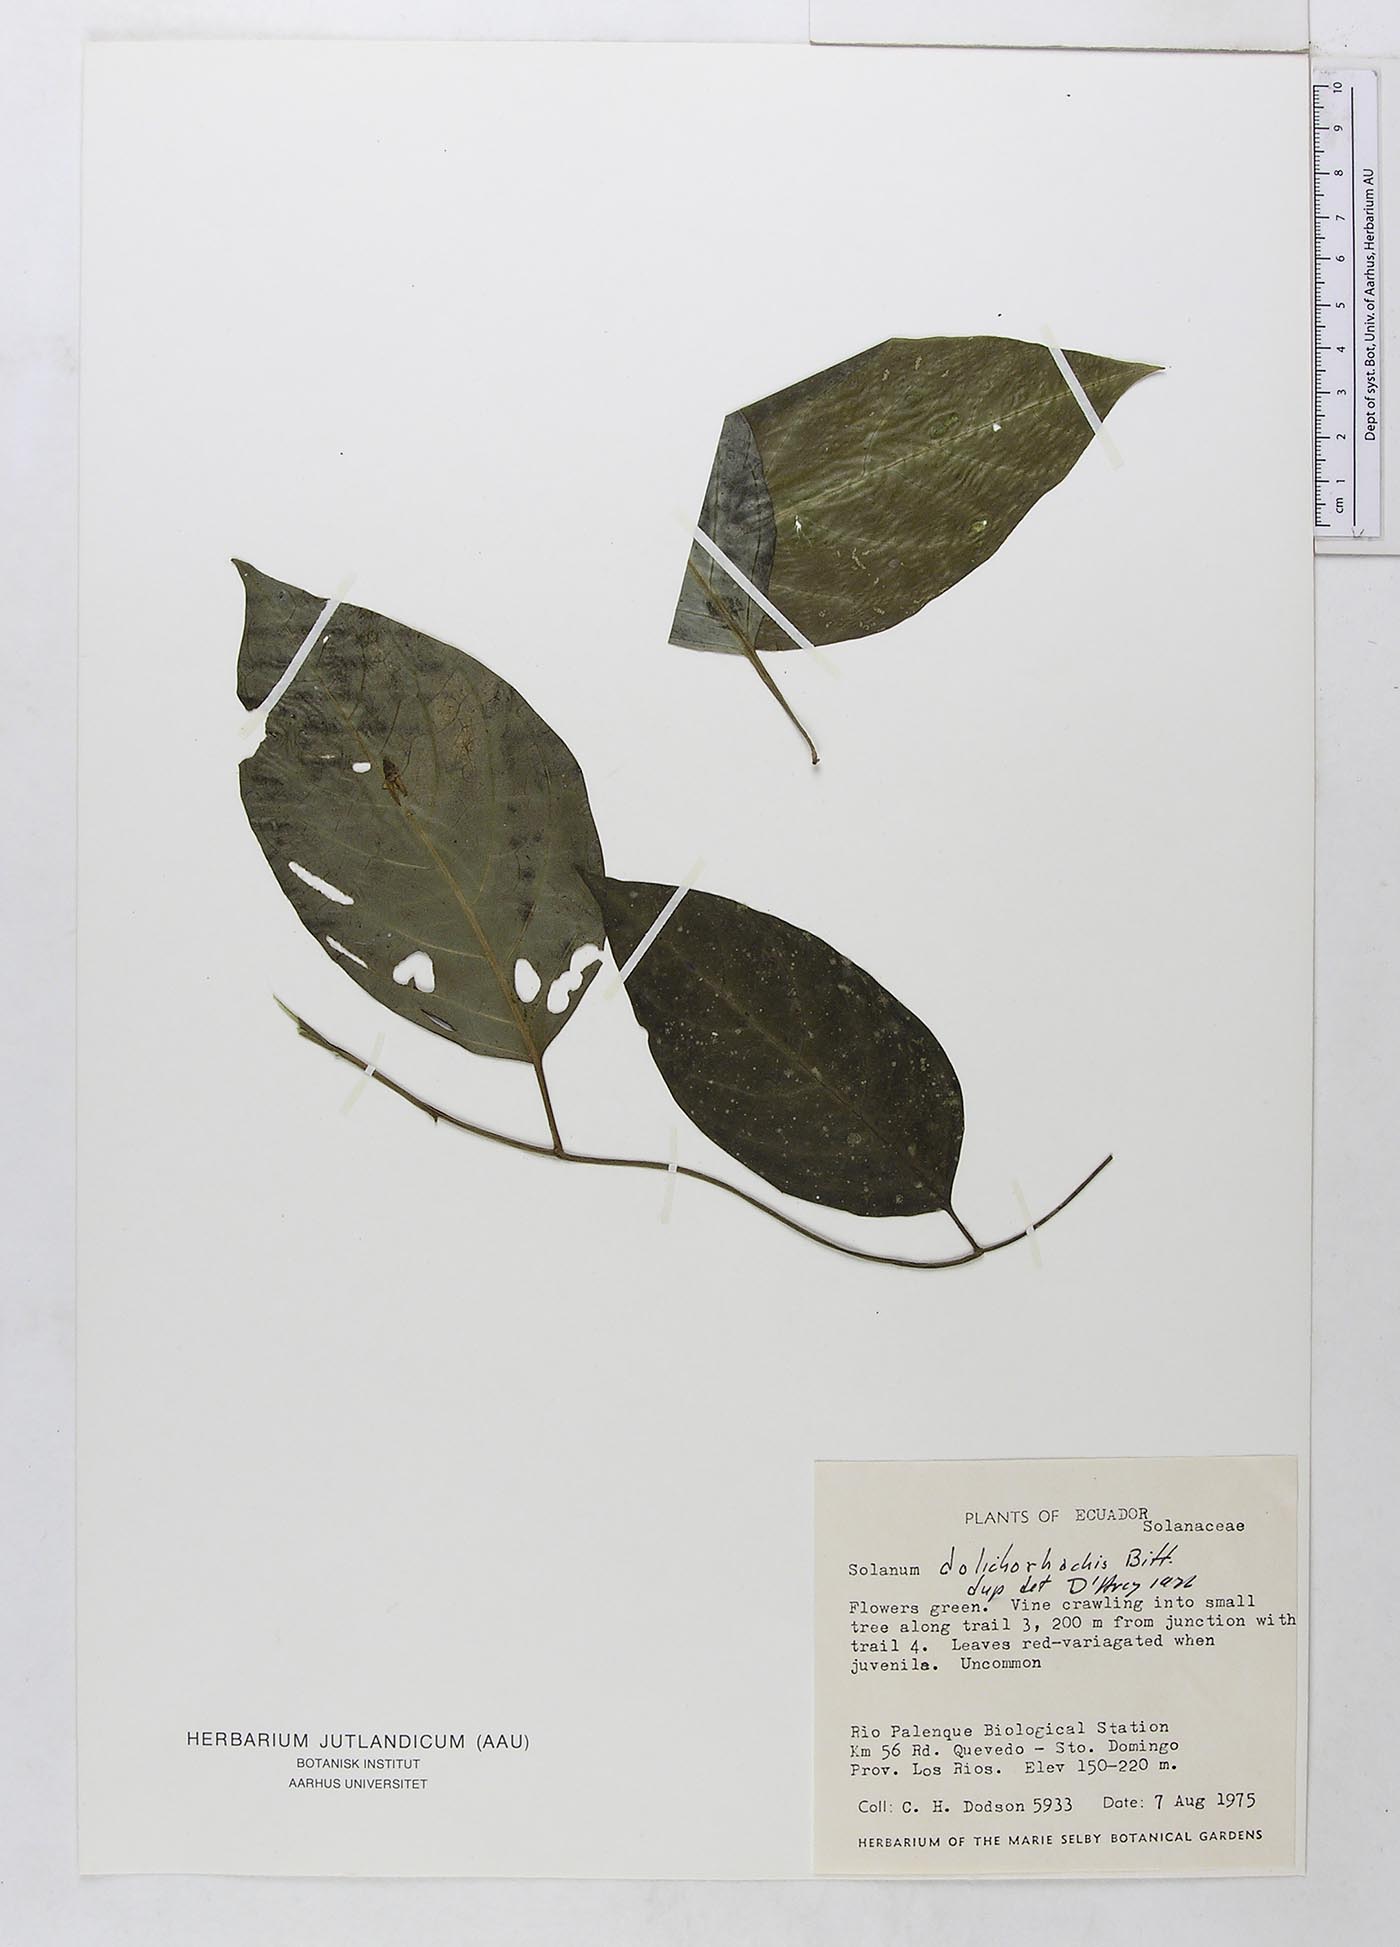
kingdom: Plantae
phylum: Tracheophyta
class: Magnoliopsida
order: Solanales
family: Solanaceae
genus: Solanum
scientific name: Solanum pacificum
